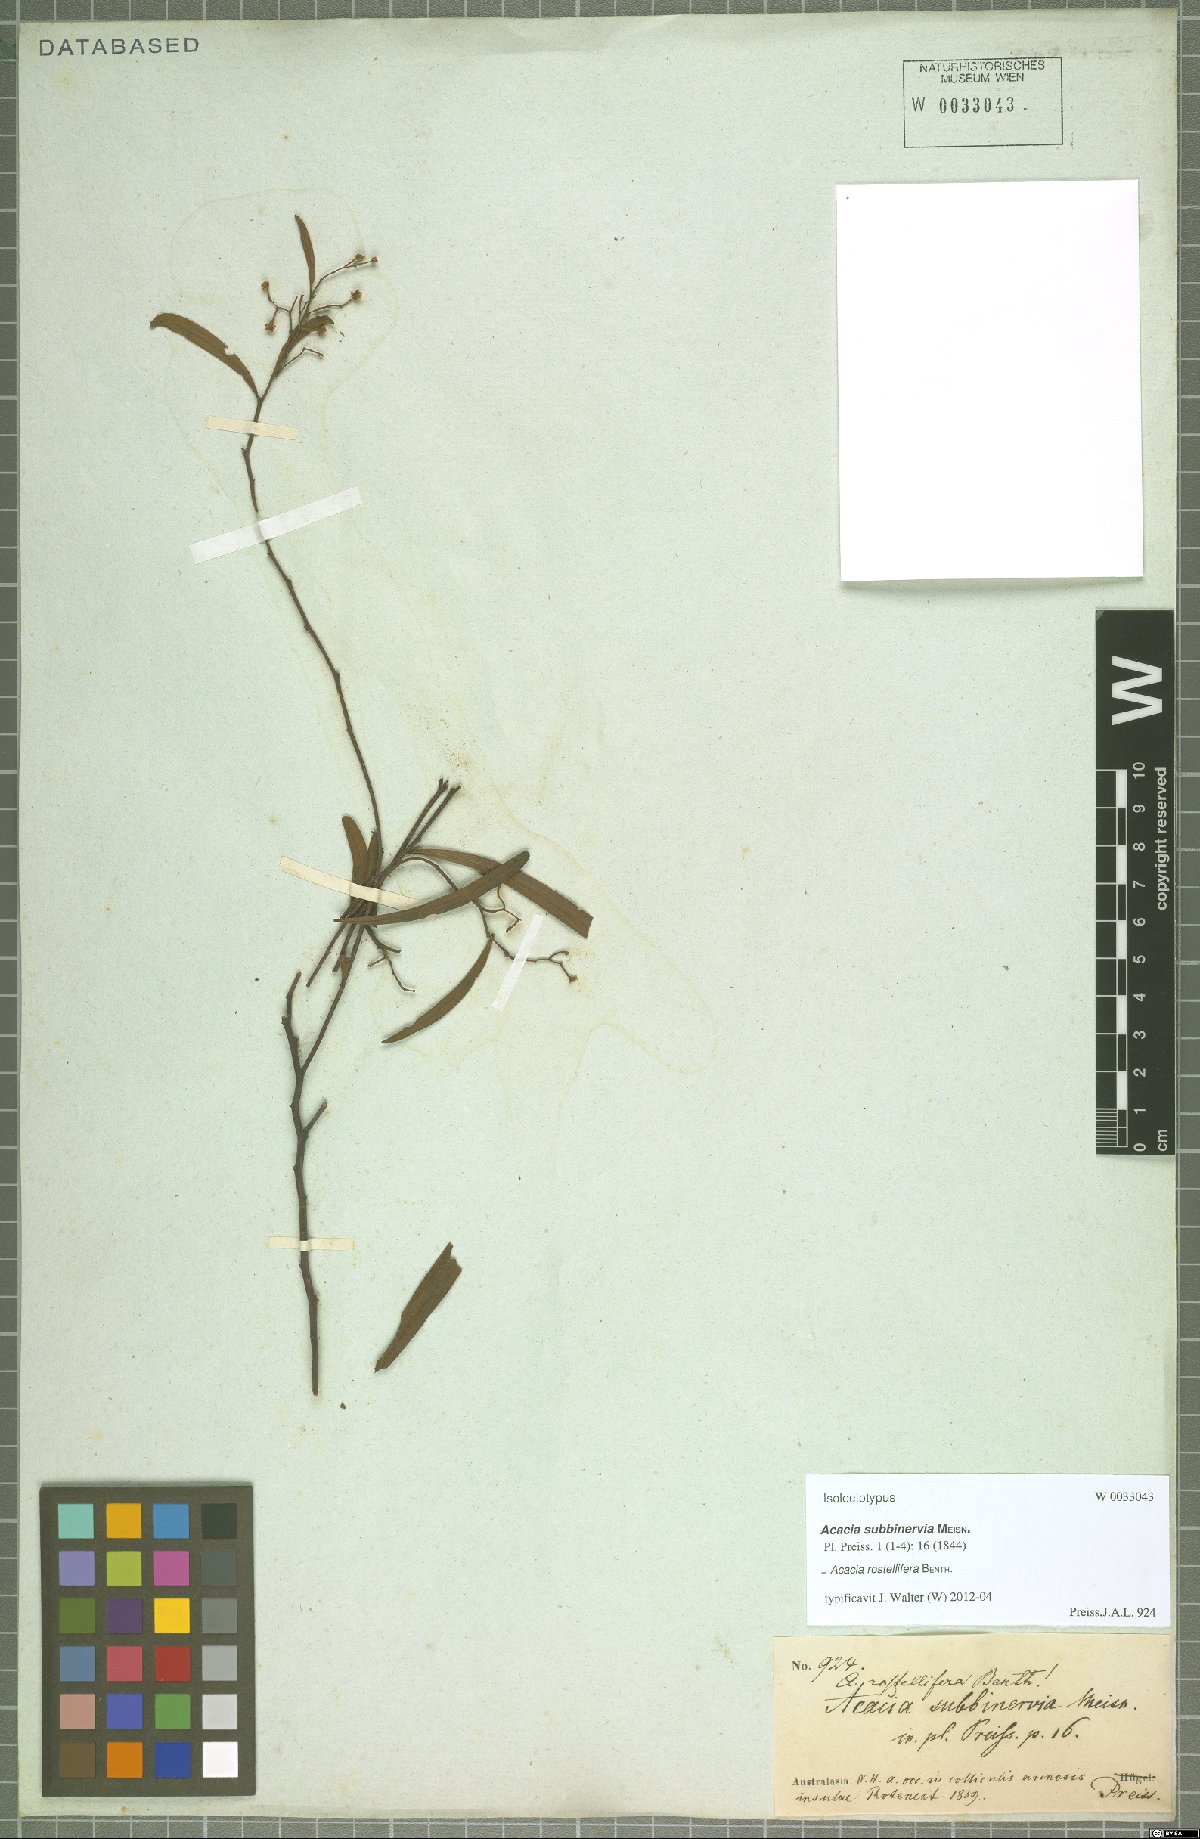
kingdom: Plantae
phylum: Tracheophyta
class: Magnoliopsida
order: Fabales
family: Fabaceae
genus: Acacia
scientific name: Acacia rostellifera
